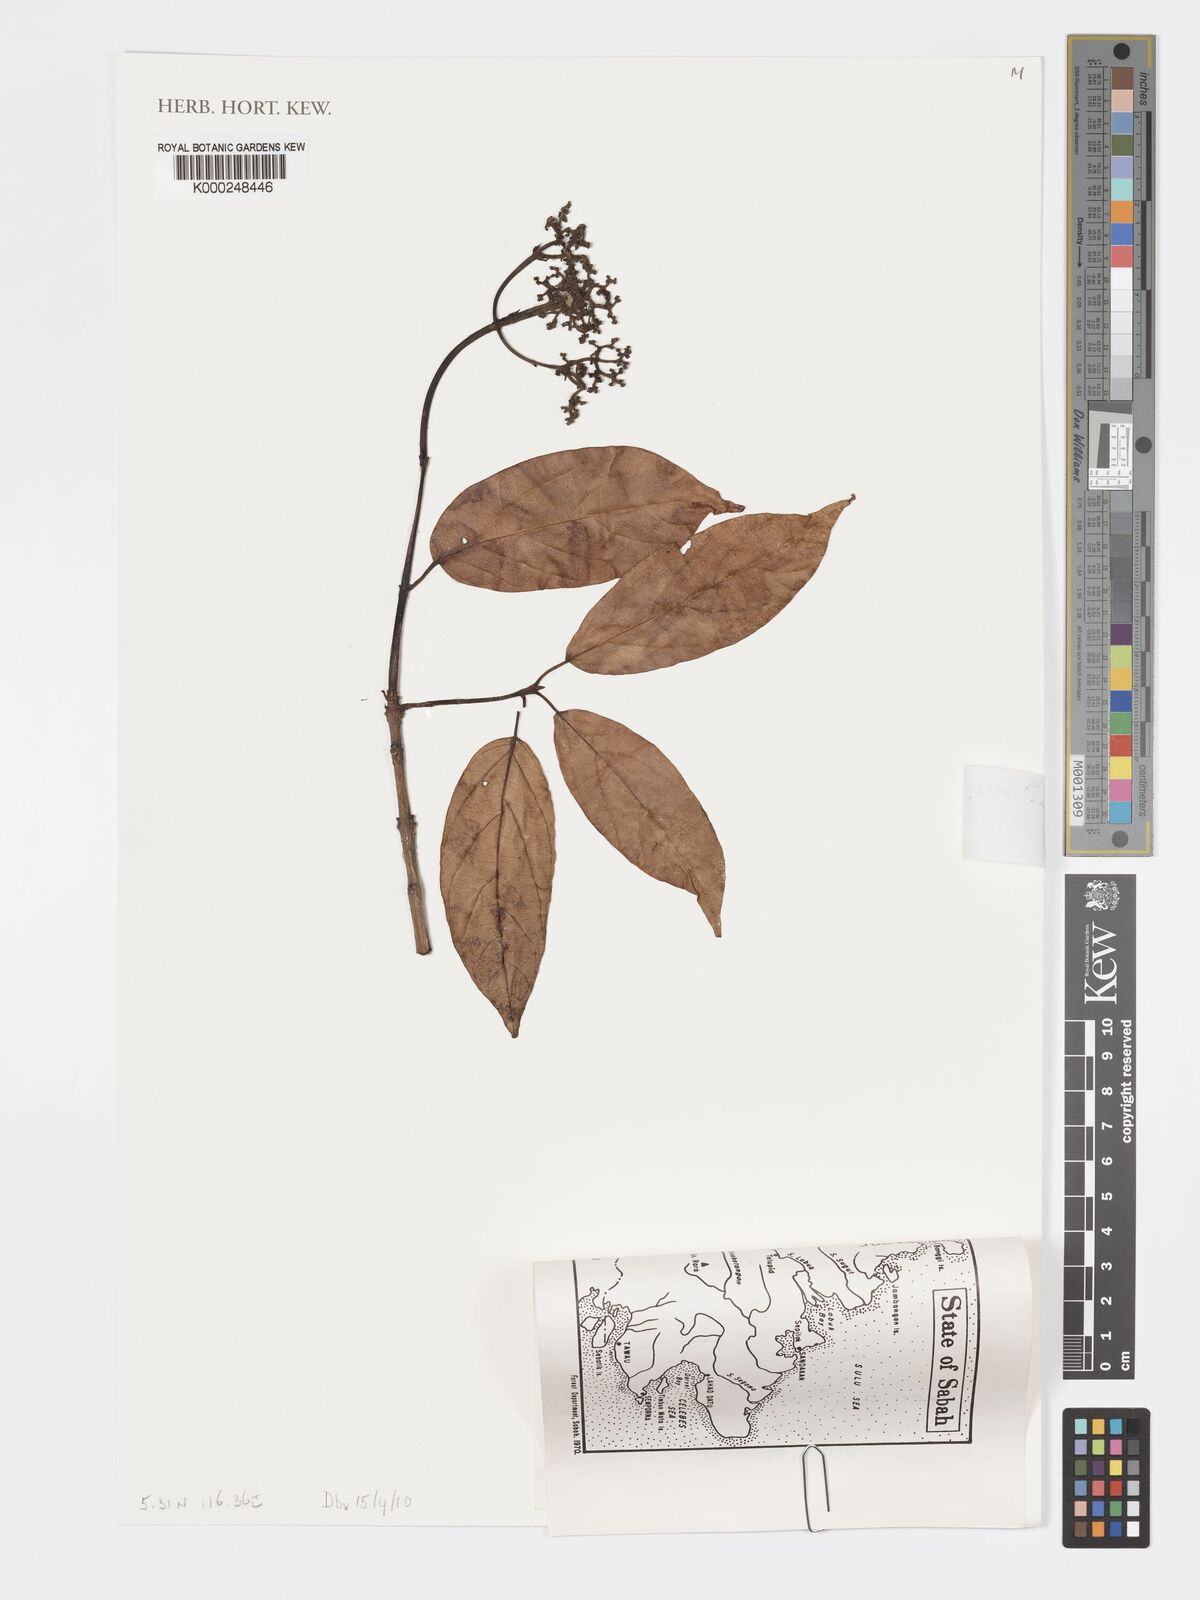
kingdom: Plantae
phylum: Tracheophyta
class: Magnoliopsida
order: Lamiales
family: Lamiaceae
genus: Premna
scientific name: Premna trichostoma
